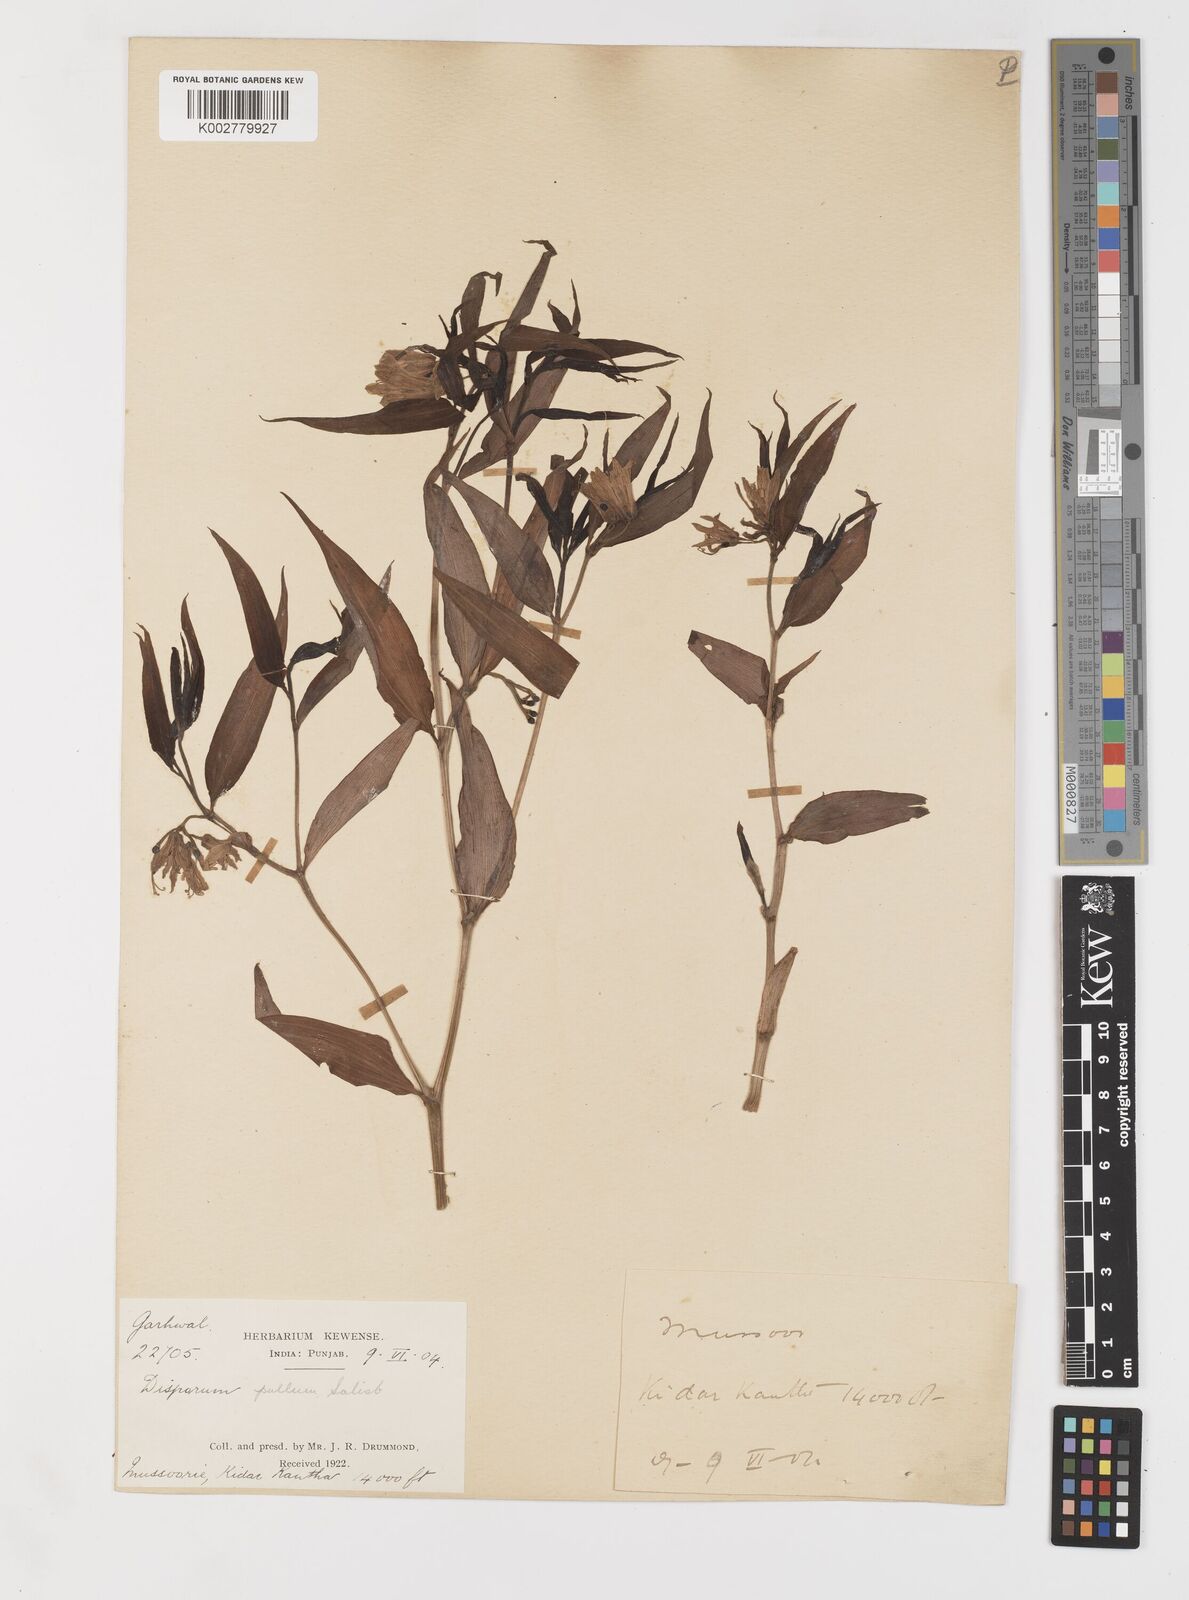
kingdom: Plantae
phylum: Tracheophyta
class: Liliopsida
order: Liliales
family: Colchicaceae
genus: Disporum
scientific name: Disporum cantoniense
